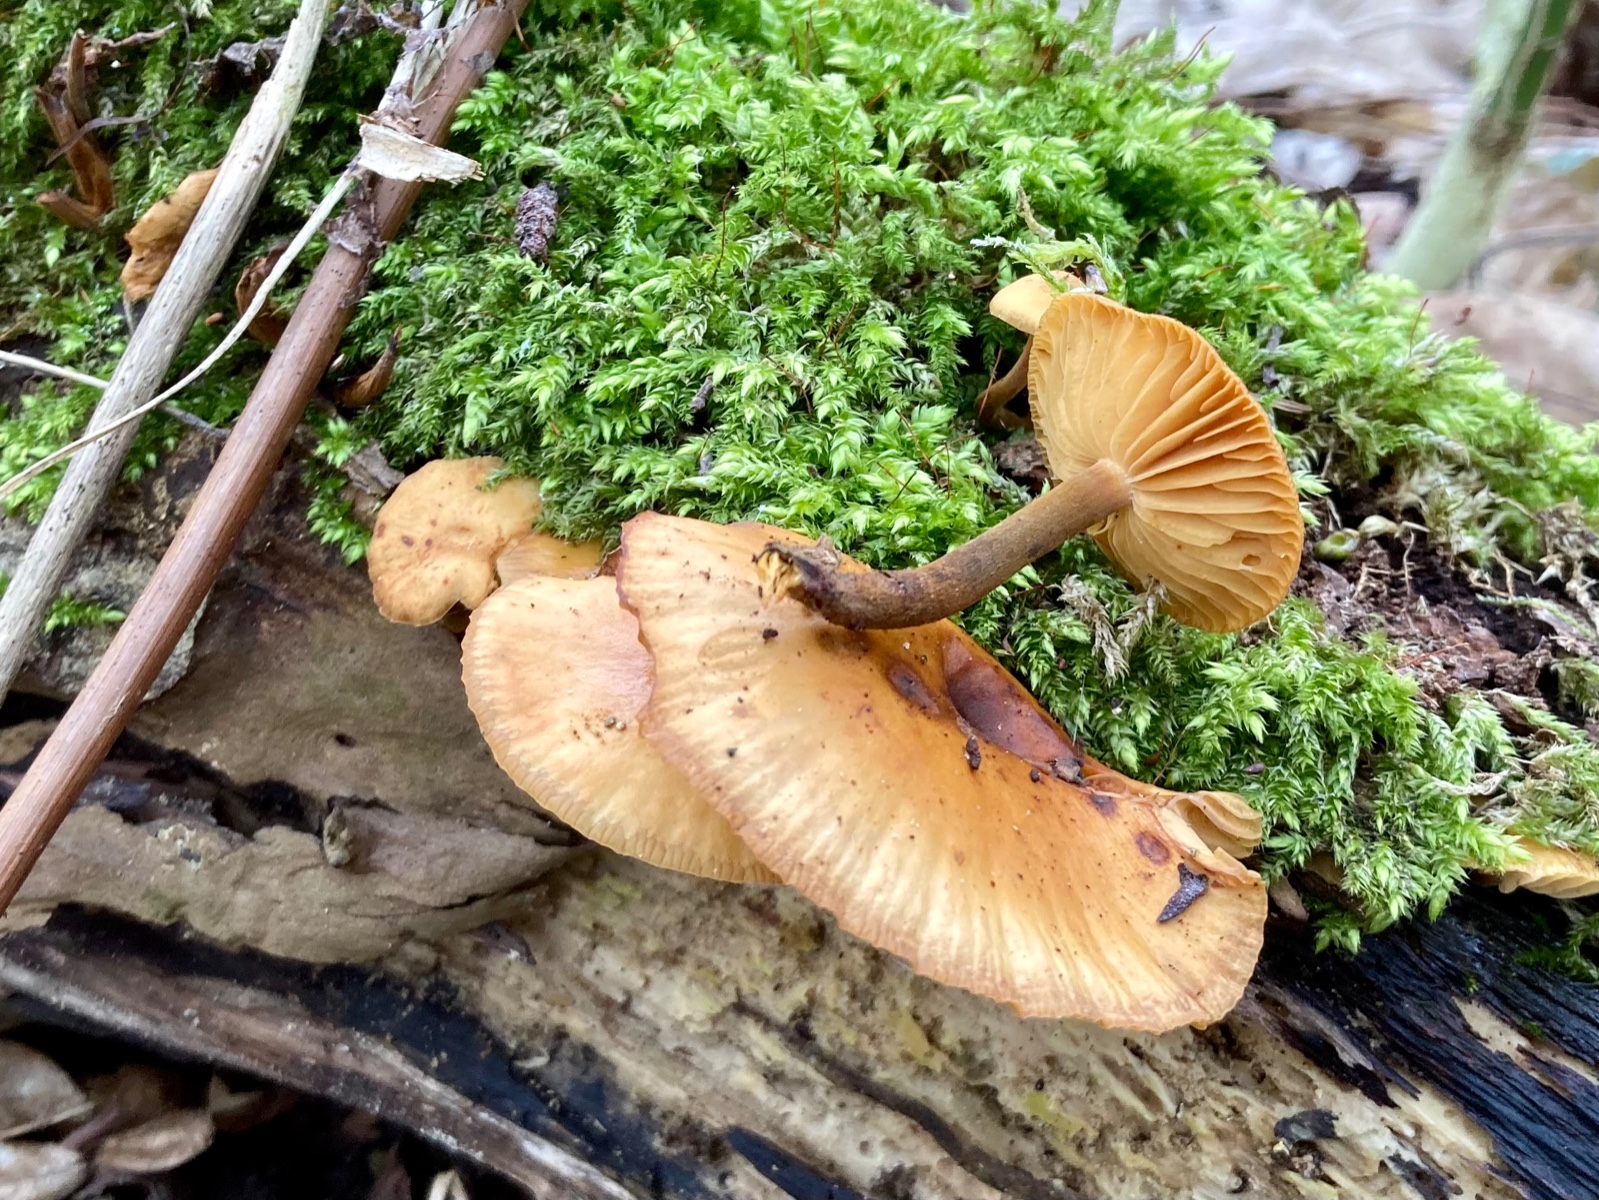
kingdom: Fungi
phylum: Basidiomycota
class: Agaricomycetes
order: Agaricales
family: Physalacriaceae
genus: Flammulina
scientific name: Flammulina
